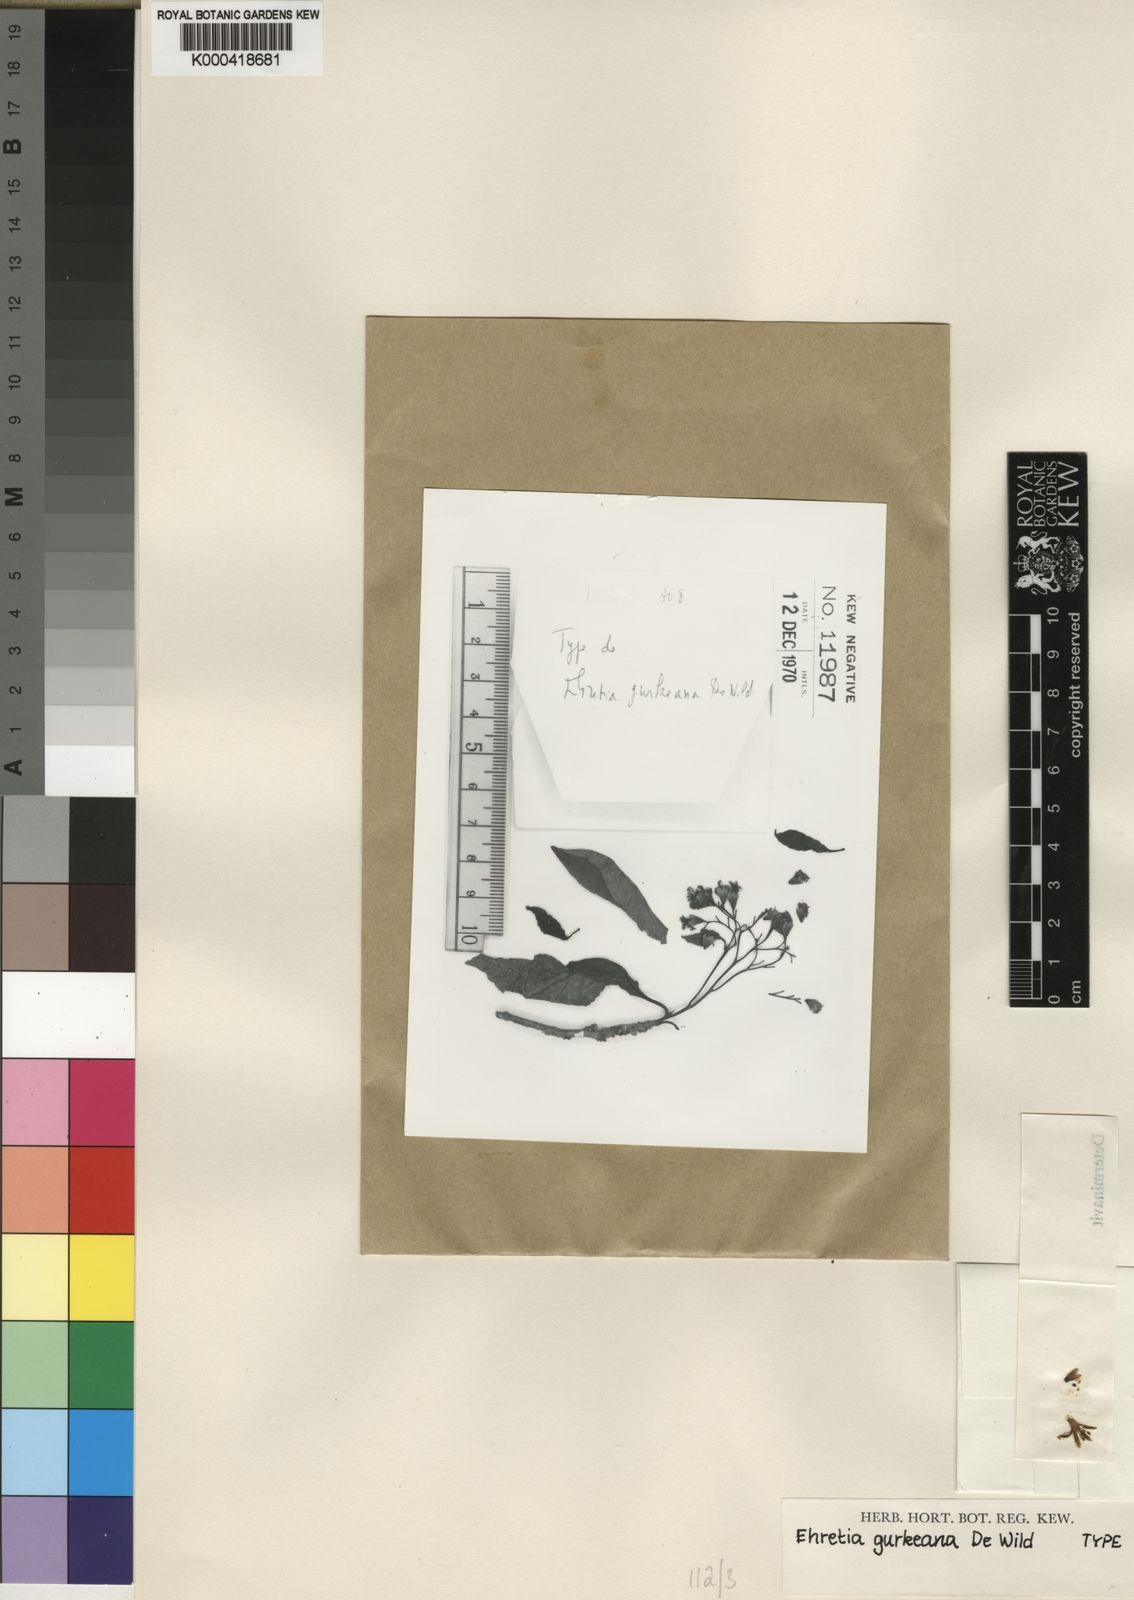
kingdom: Plantae
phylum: Tracheophyta
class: Magnoliopsida
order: Boraginales
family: Cordiaceae
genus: Cordia
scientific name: Cordia mukuensis
